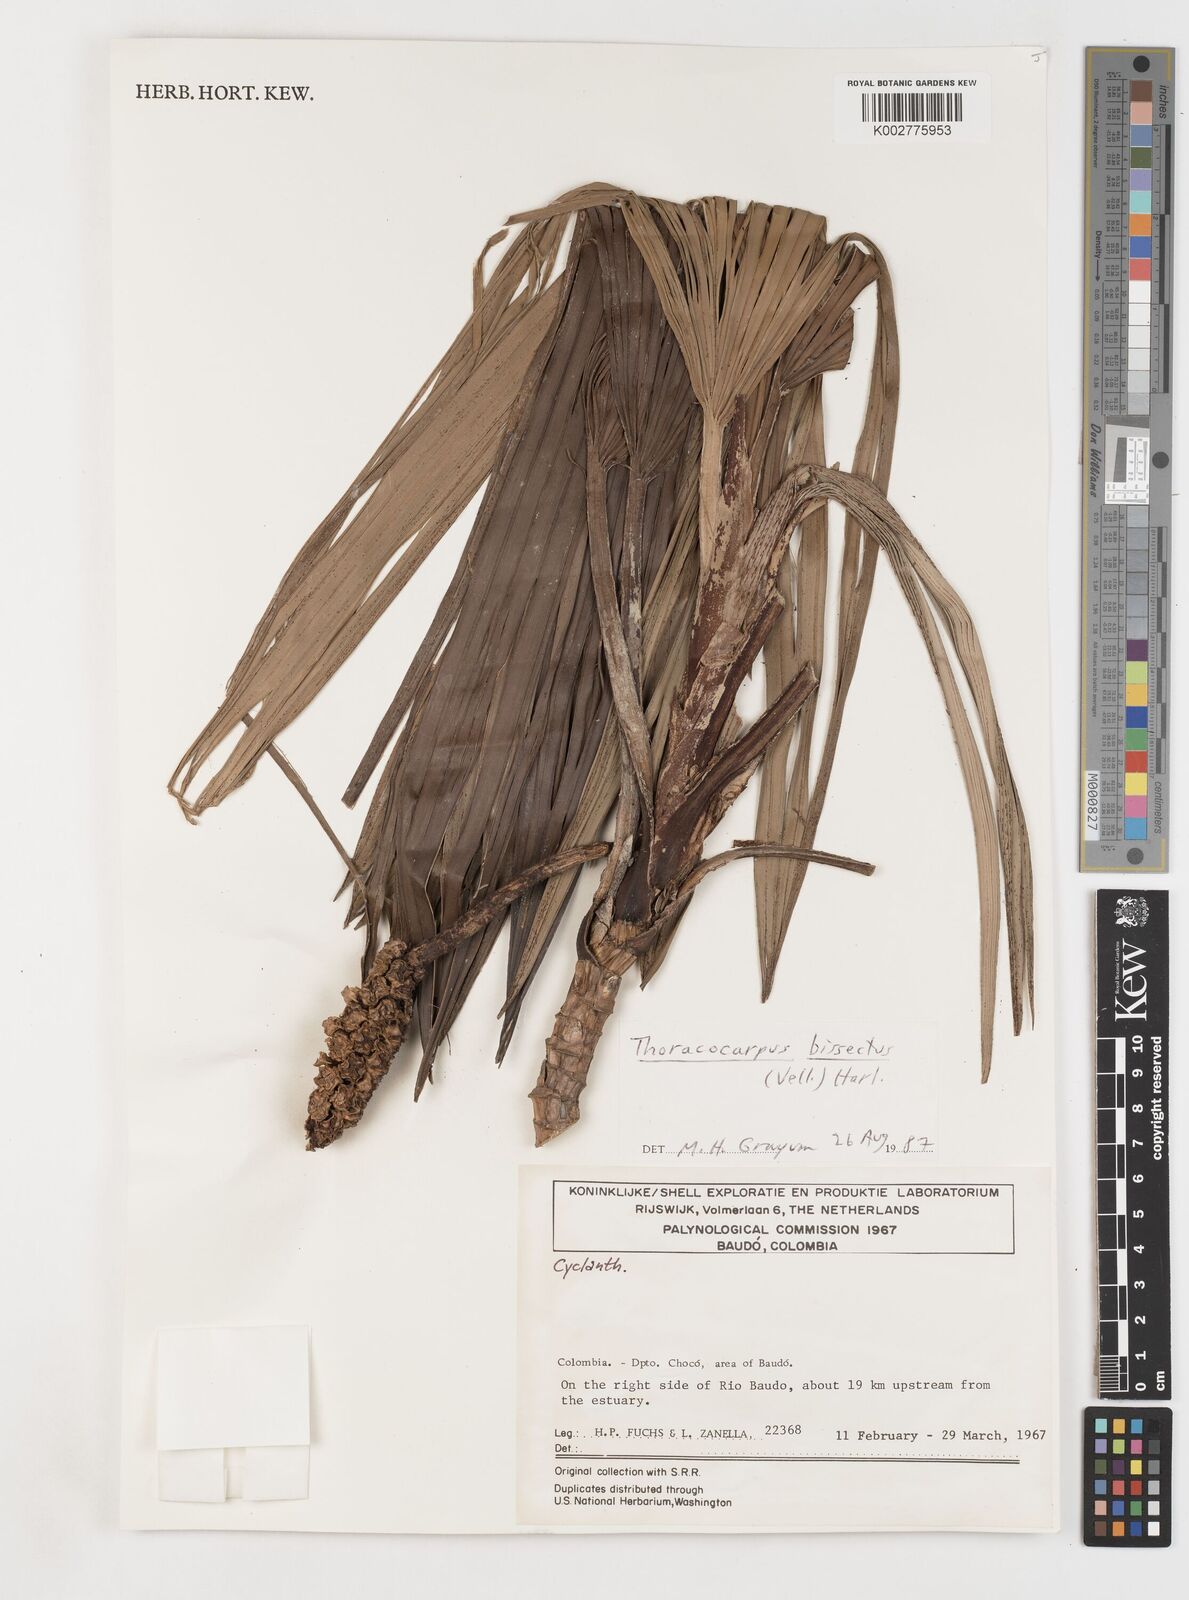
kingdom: Plantae
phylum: Tracheophyta
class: Liliopsida
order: Pandanales
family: Cyclanthaceae
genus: Thoracocarpus
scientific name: Thoracocarpus bissectus
